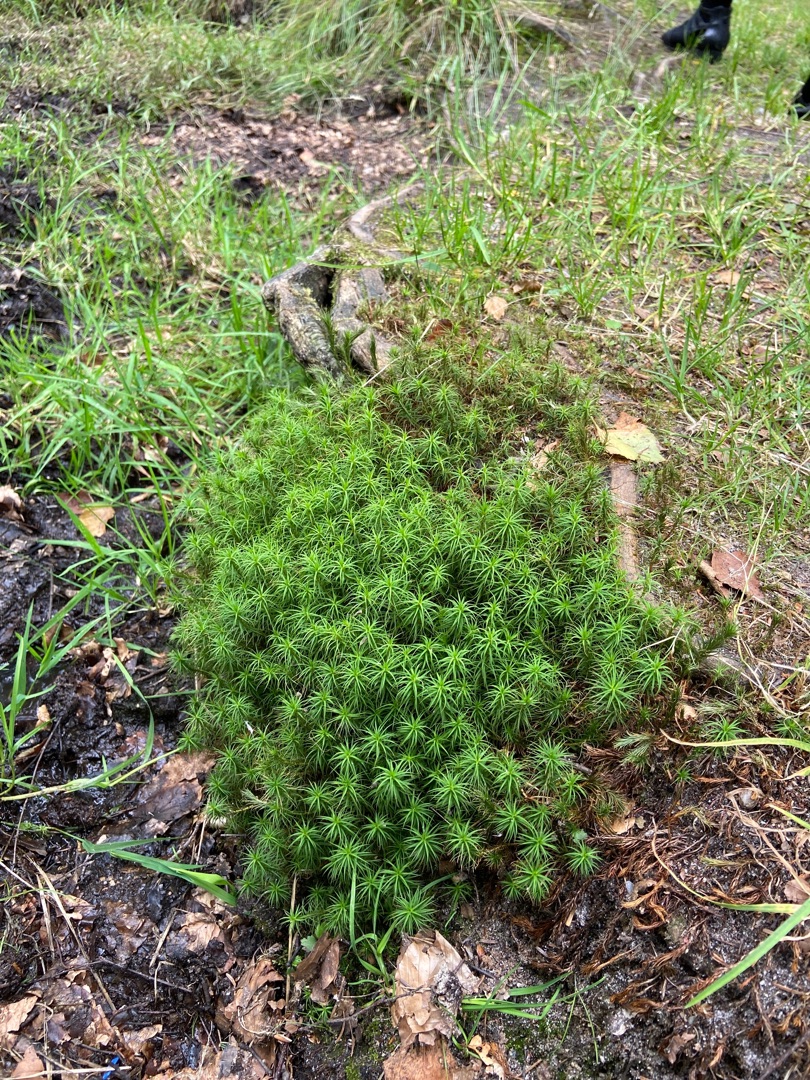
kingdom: Plantae
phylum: Bryophyta
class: Polytrichopsida
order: Polytrichales
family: Polytrichaceae
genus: Polytrichum
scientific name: Polytrichum
